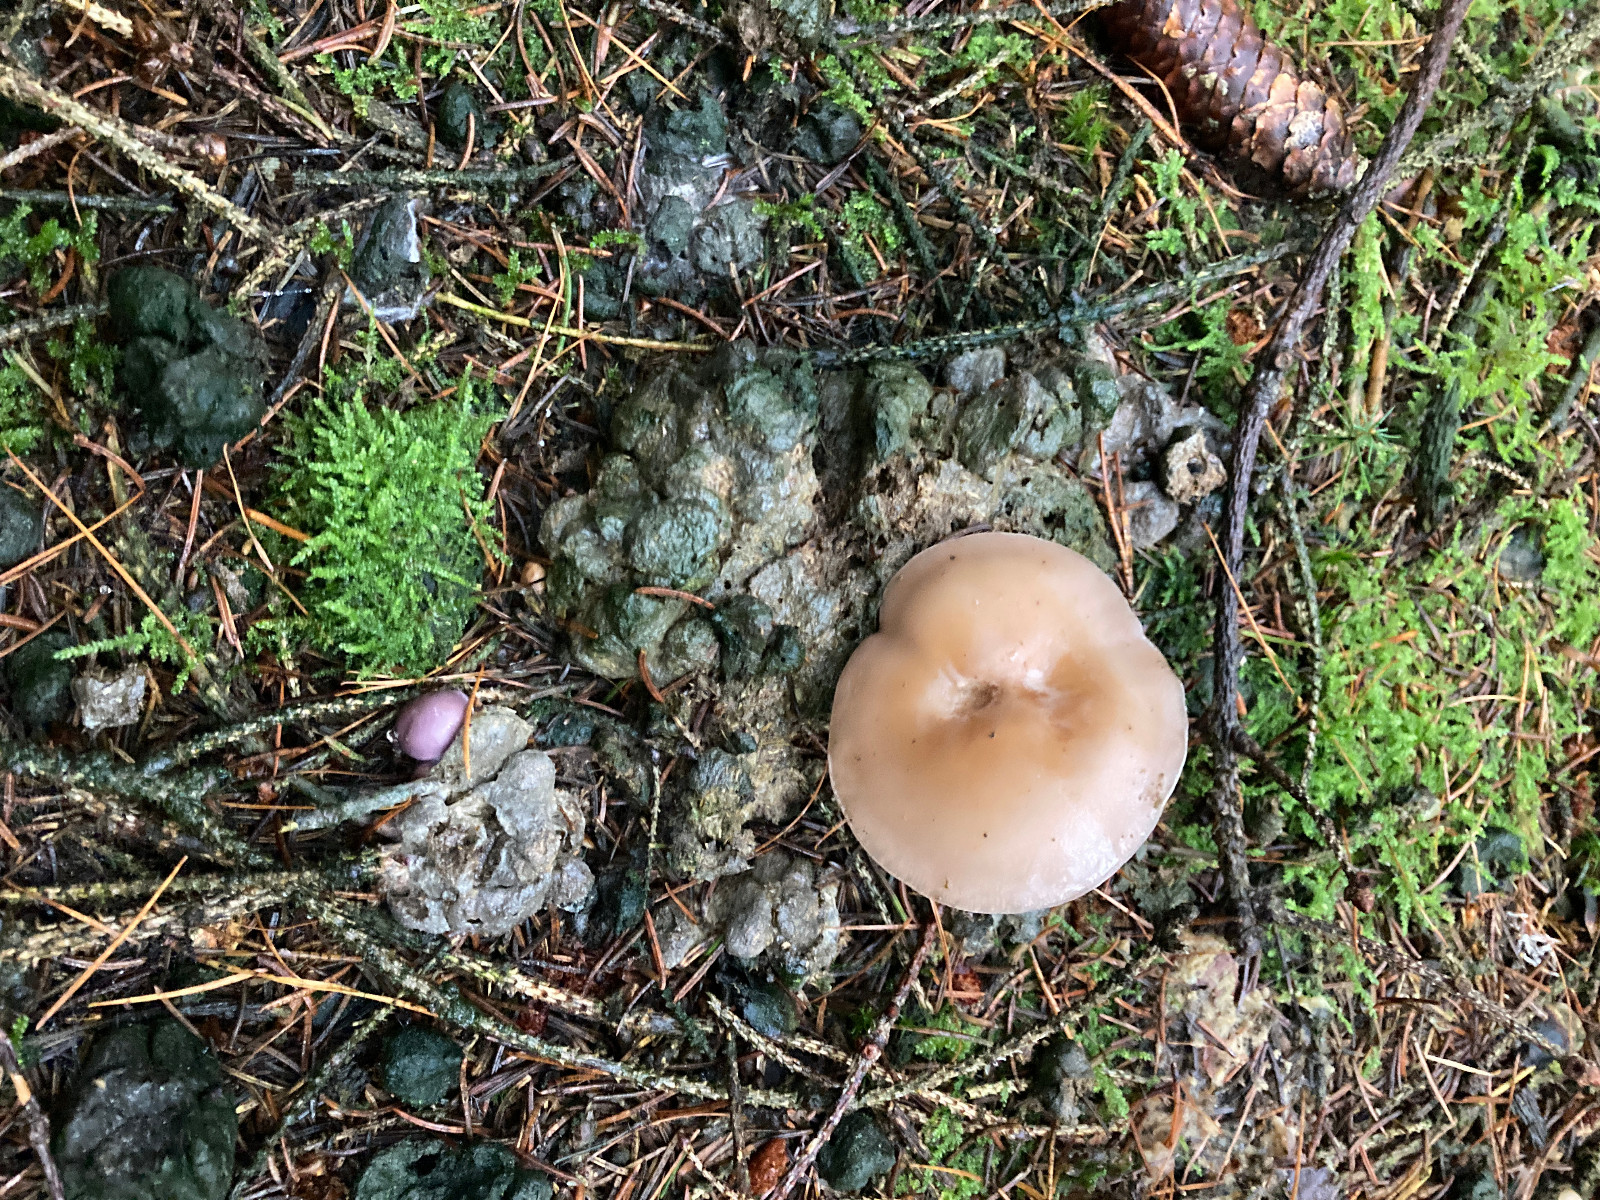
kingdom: Fungi
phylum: Basidiomycota
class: Agaricomycetes
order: Agaricales
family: Tricholomataceae
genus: Lepista
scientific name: Lepista
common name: hekseringshat
